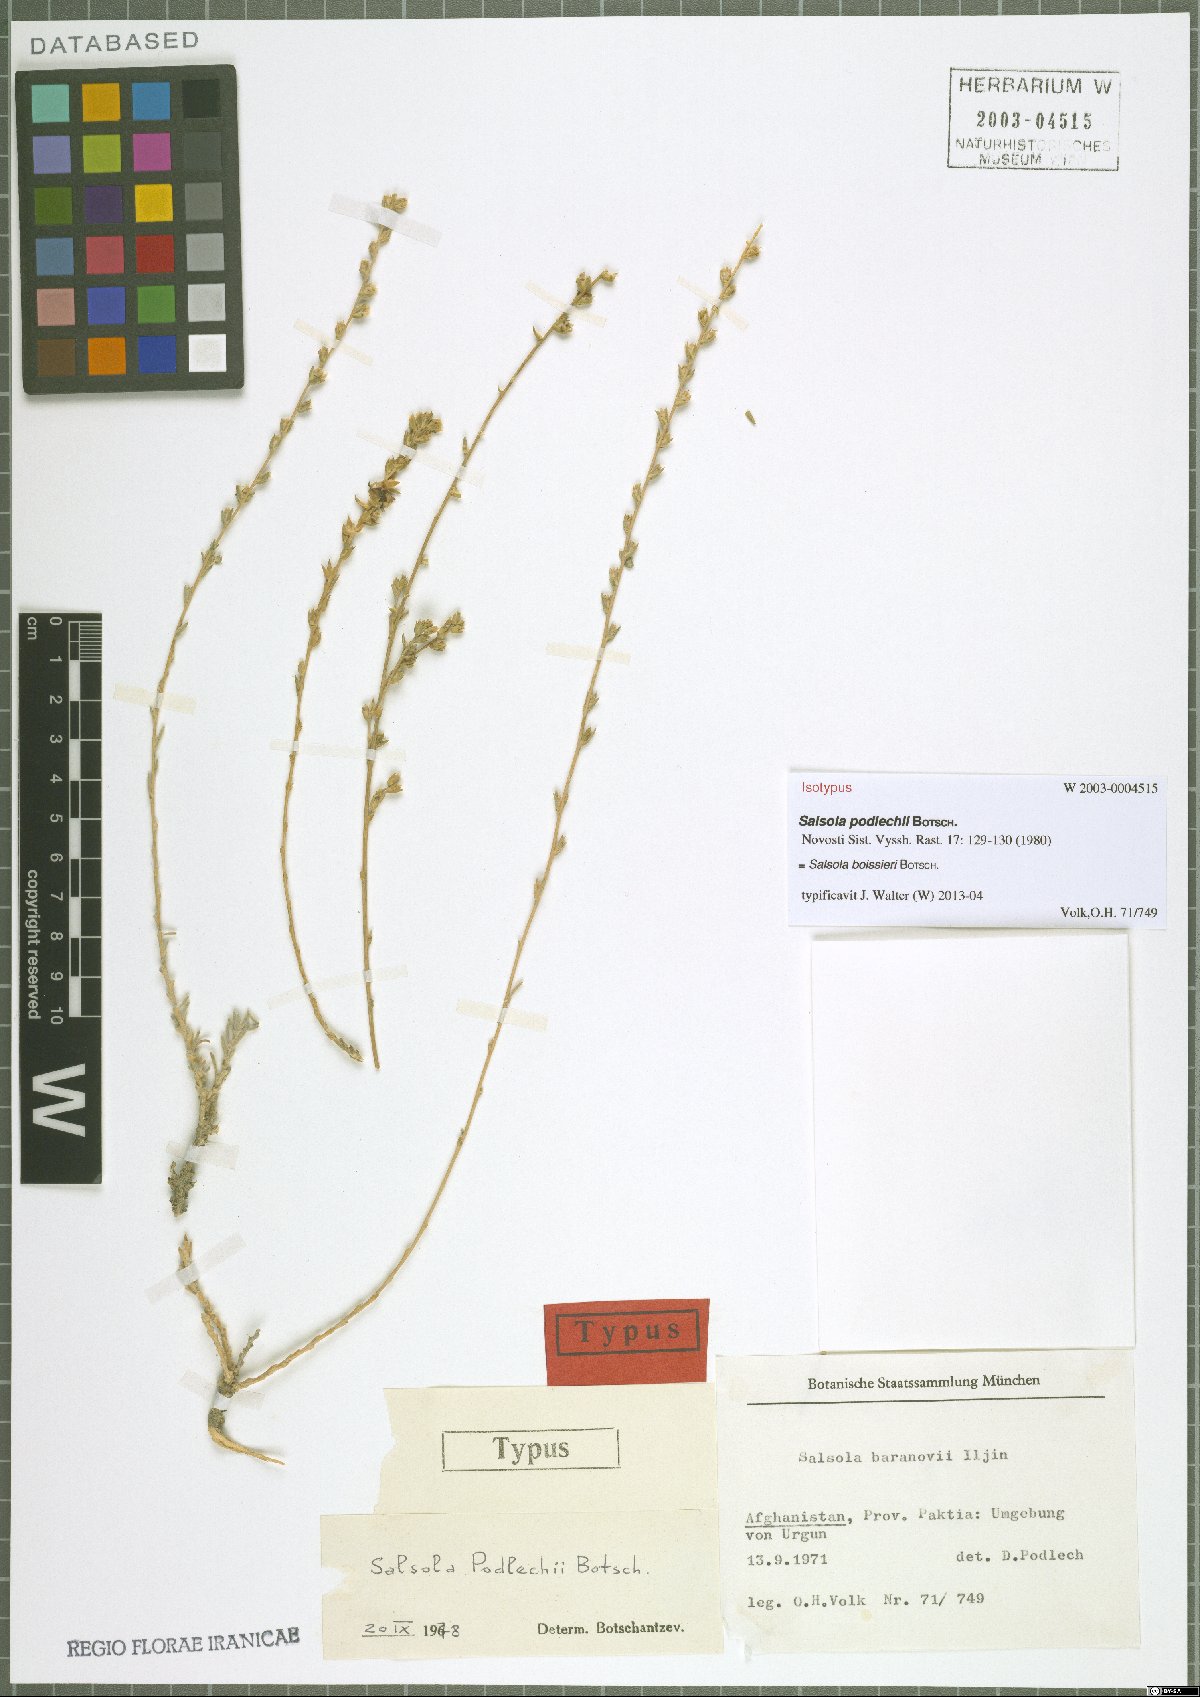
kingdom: Plantae
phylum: Tracheophyta
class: Magnoliopsida
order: Caryophyllales
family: Amaranthaceae
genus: Akhania
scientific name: Akhania canescens
